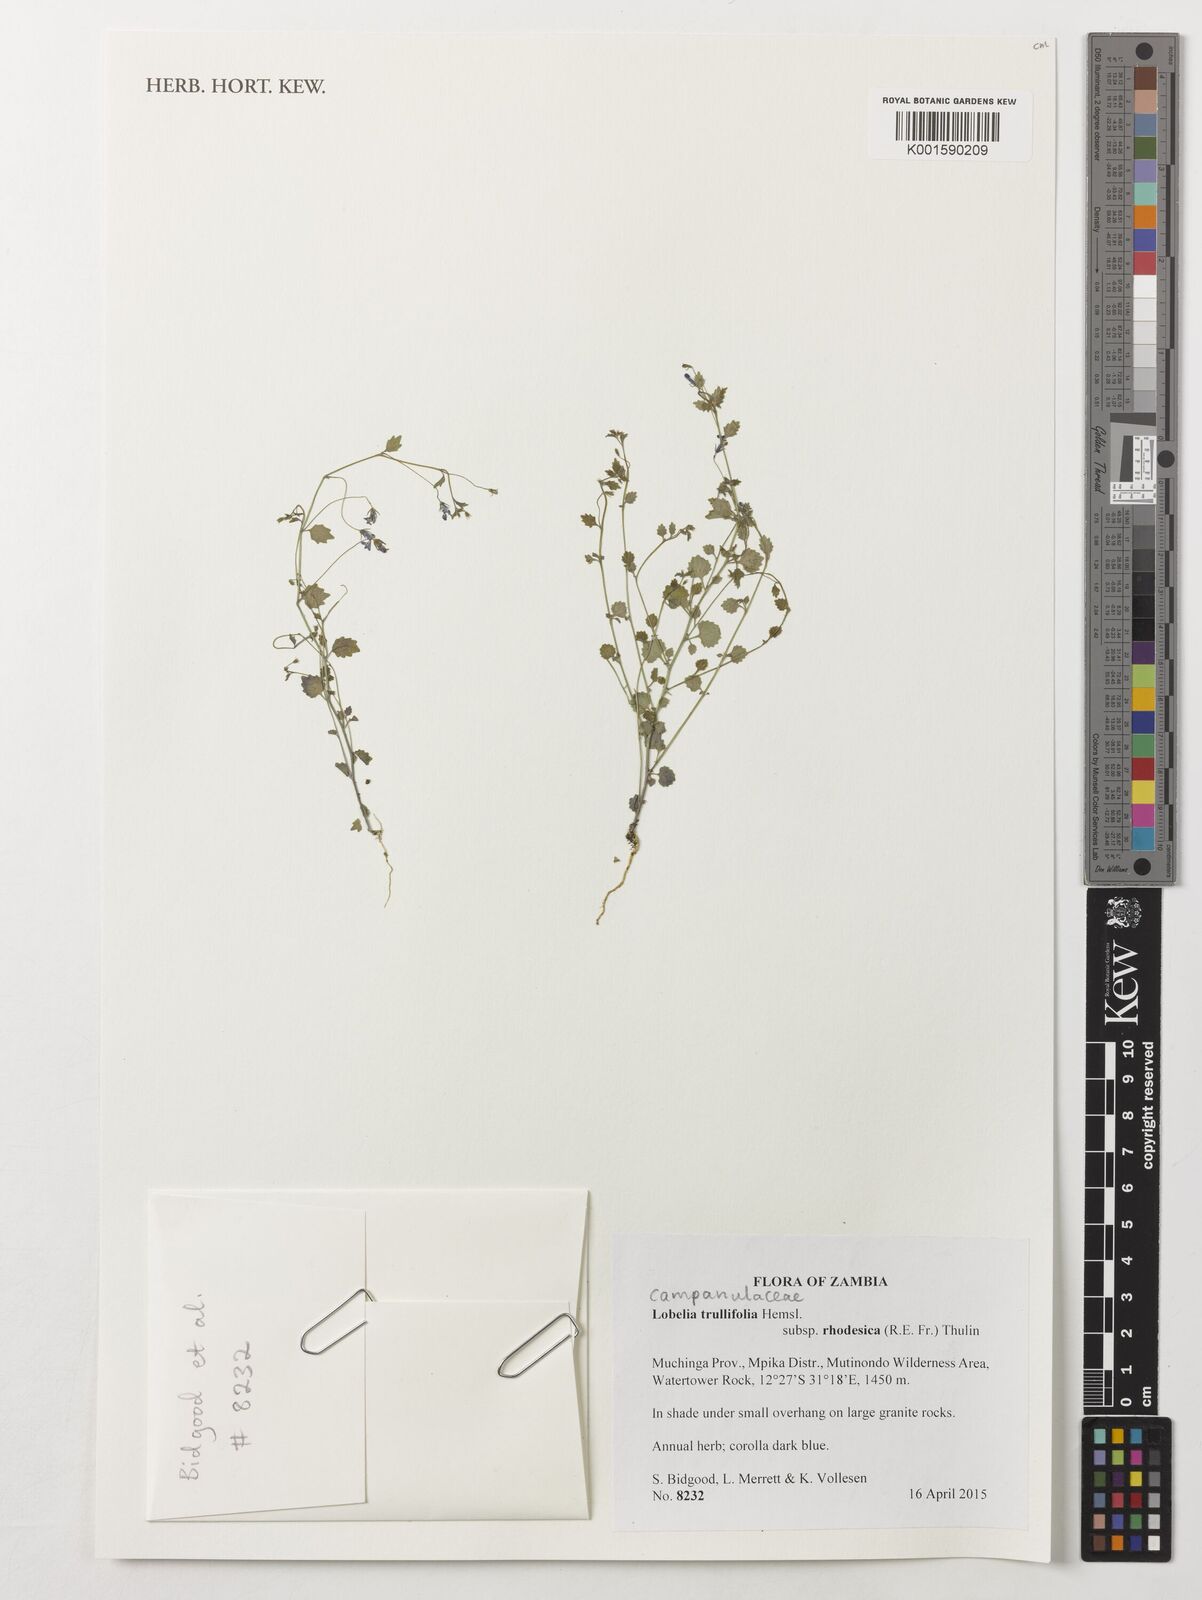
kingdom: Plantae
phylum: Tracheophyta
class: Magnoliopsida
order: Asterales
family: Campanulaceae
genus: Lobelia
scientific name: Lobelia trullifolia
